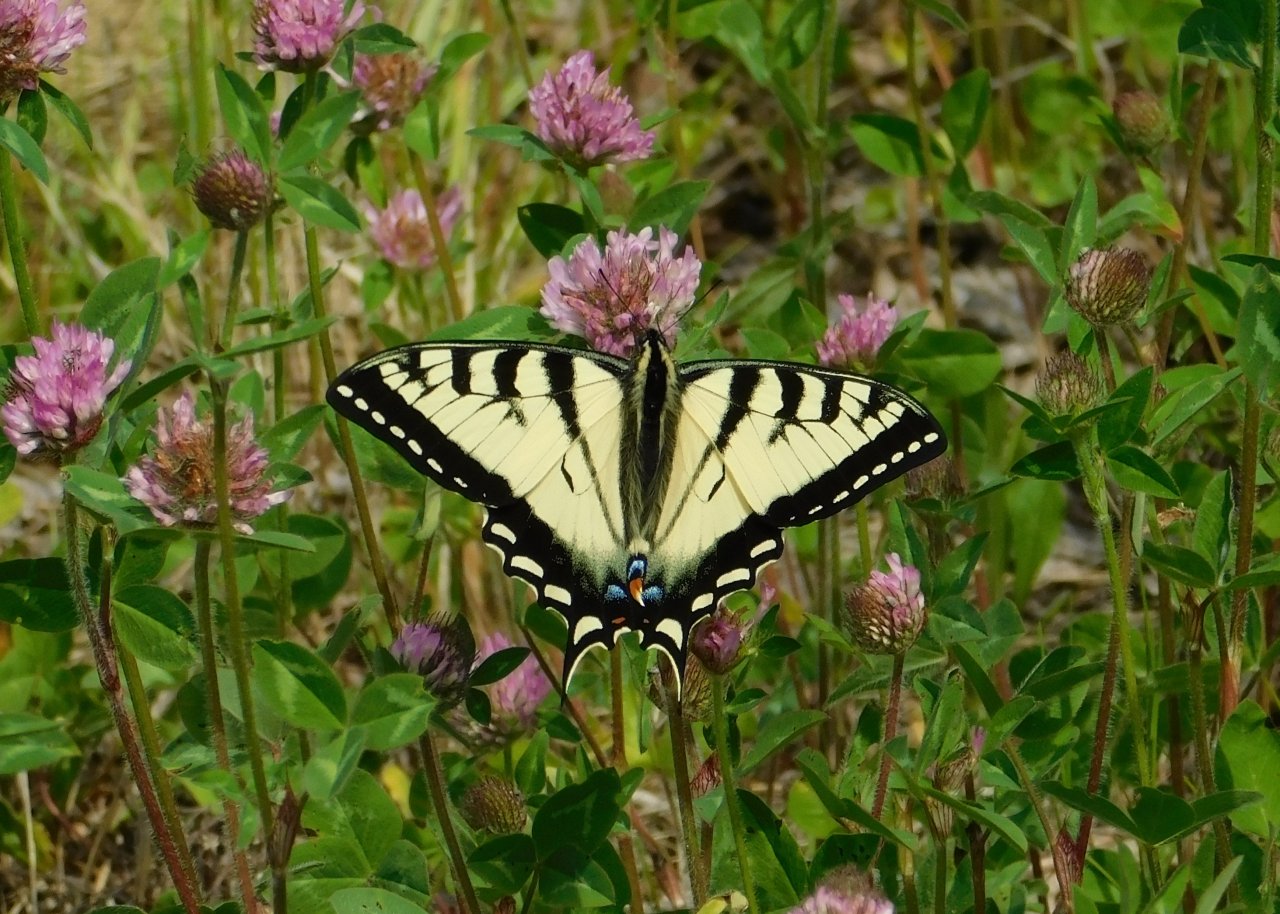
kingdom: Animalia
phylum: Arthropoda
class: Insecta
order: Lepidoptera
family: Papilionidae
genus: Pterourus
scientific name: Pterourus canadensis
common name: Canadian Tiger Swallowtail
